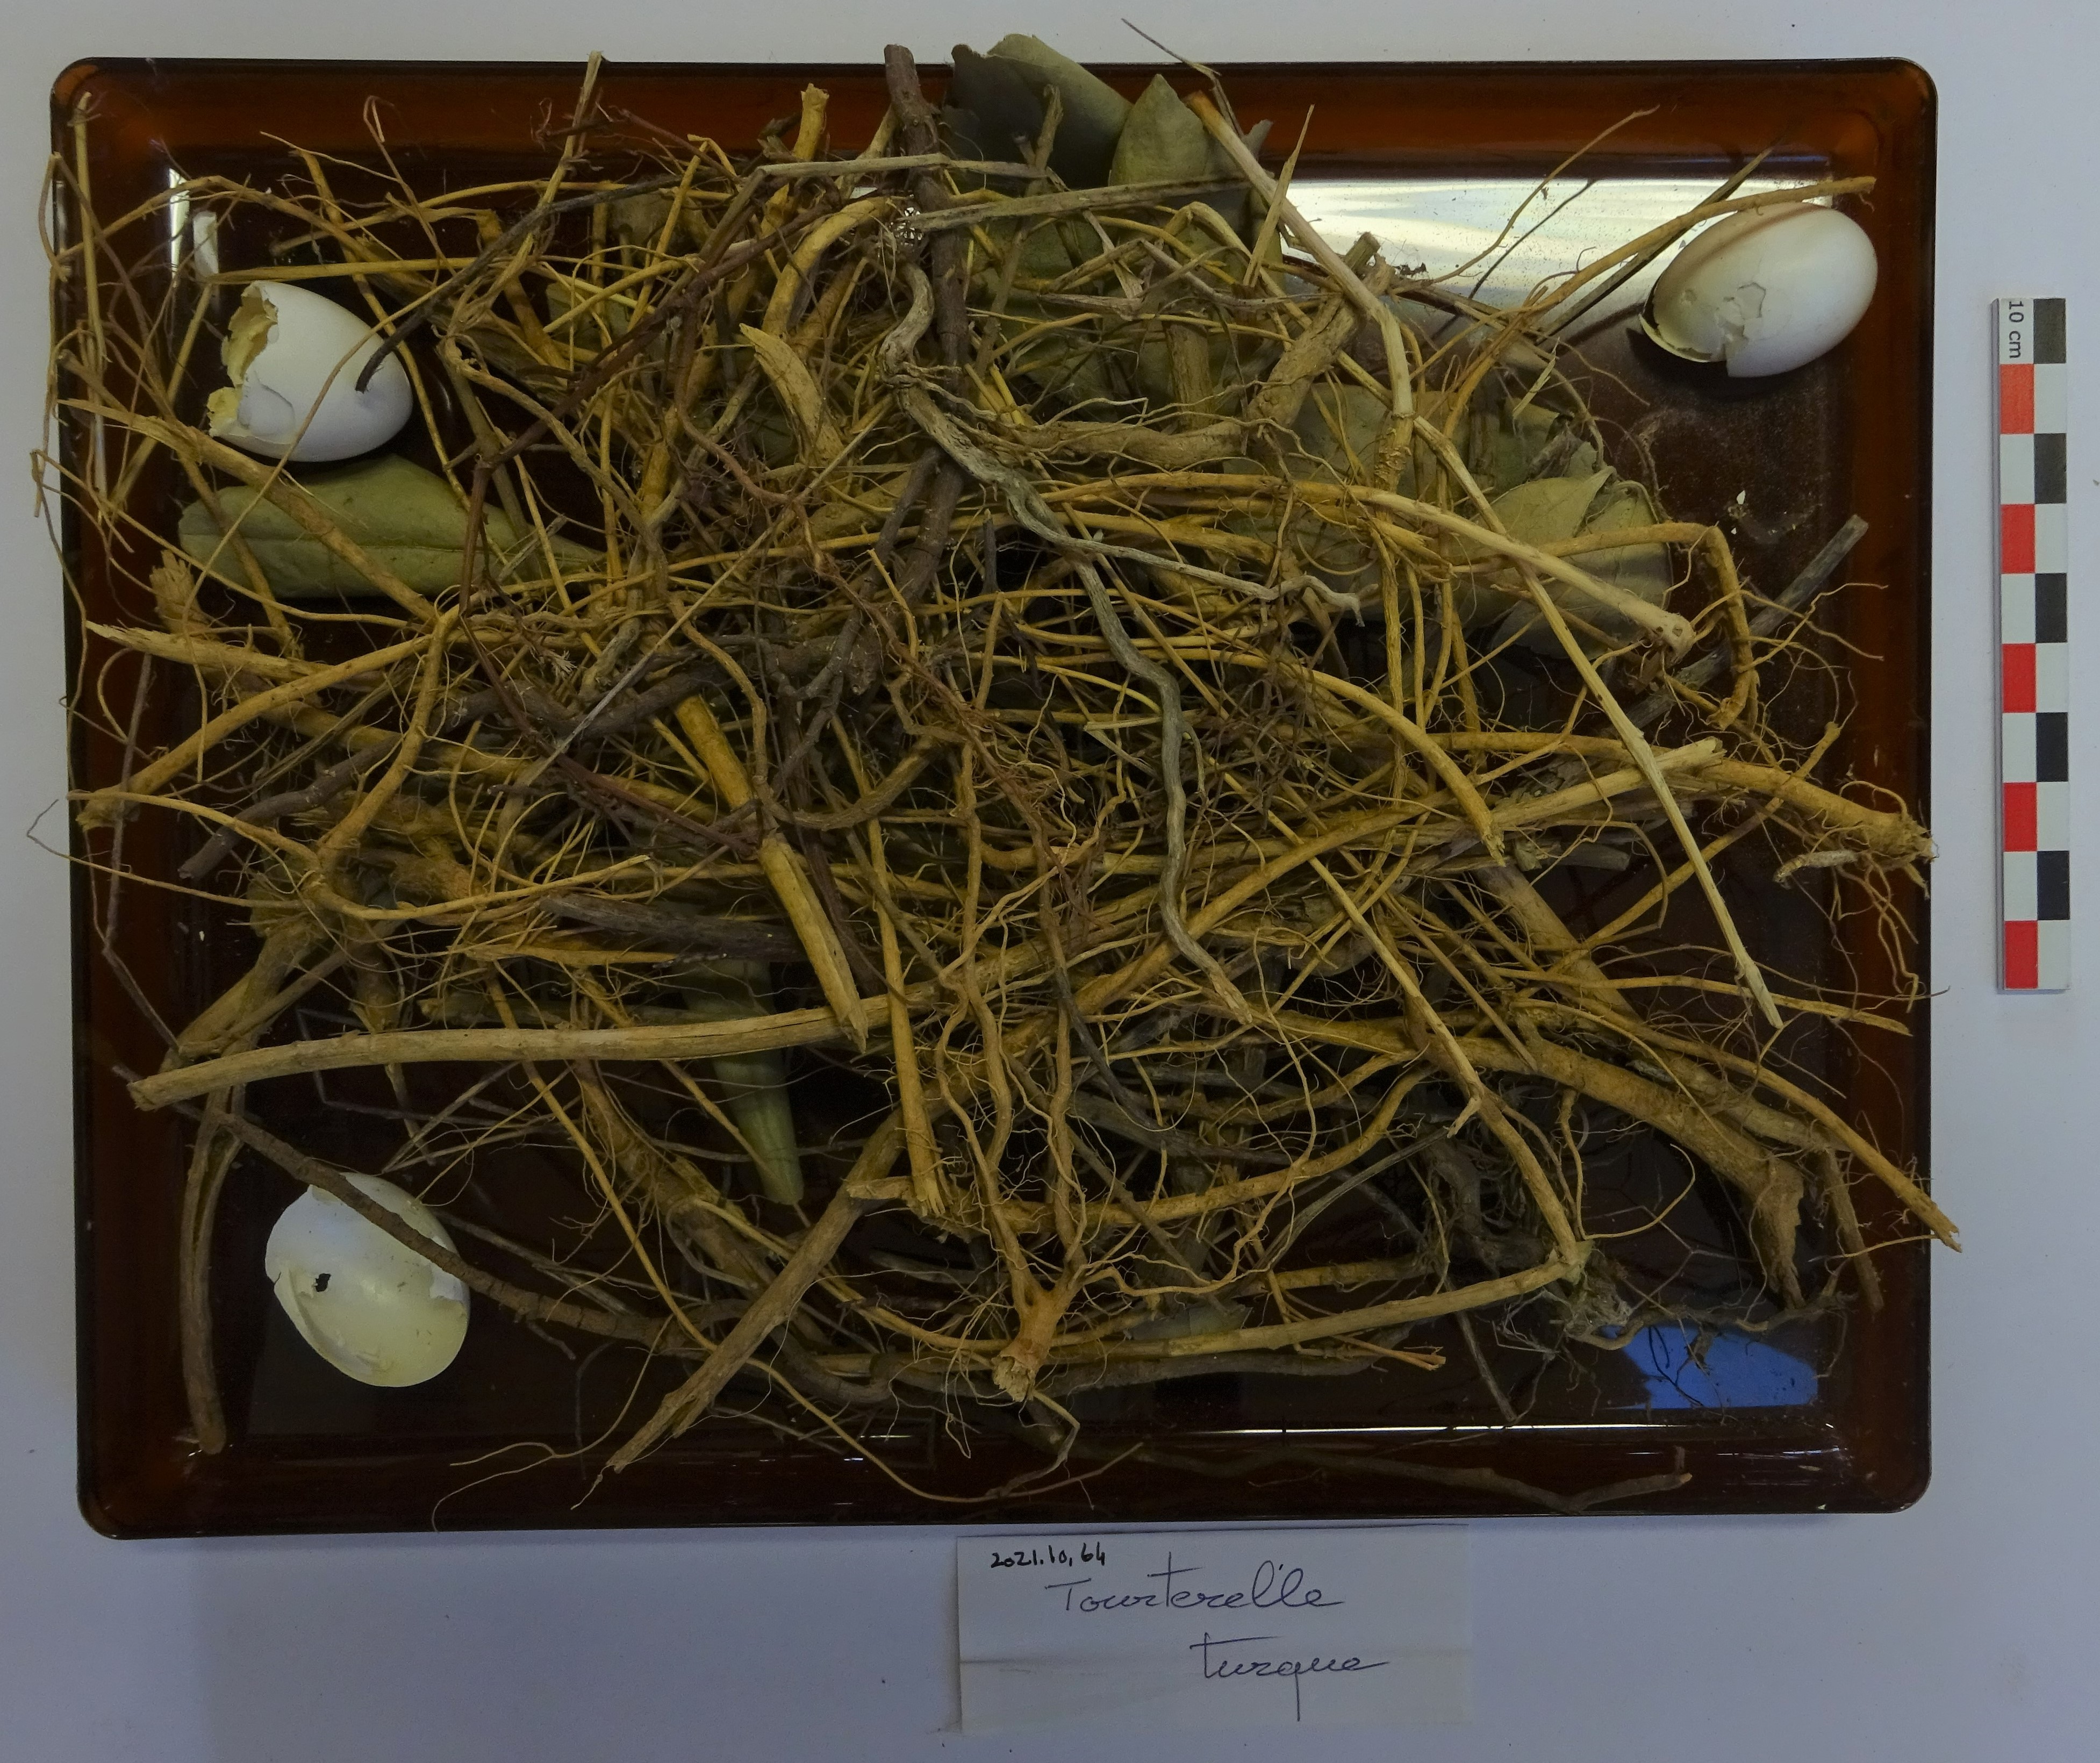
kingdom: Animalia
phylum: Chordata
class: Aves
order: Columbiformes
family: Columbidae
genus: Streptopelia
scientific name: Streptopelia decaocto
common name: Eurasian collared dove
